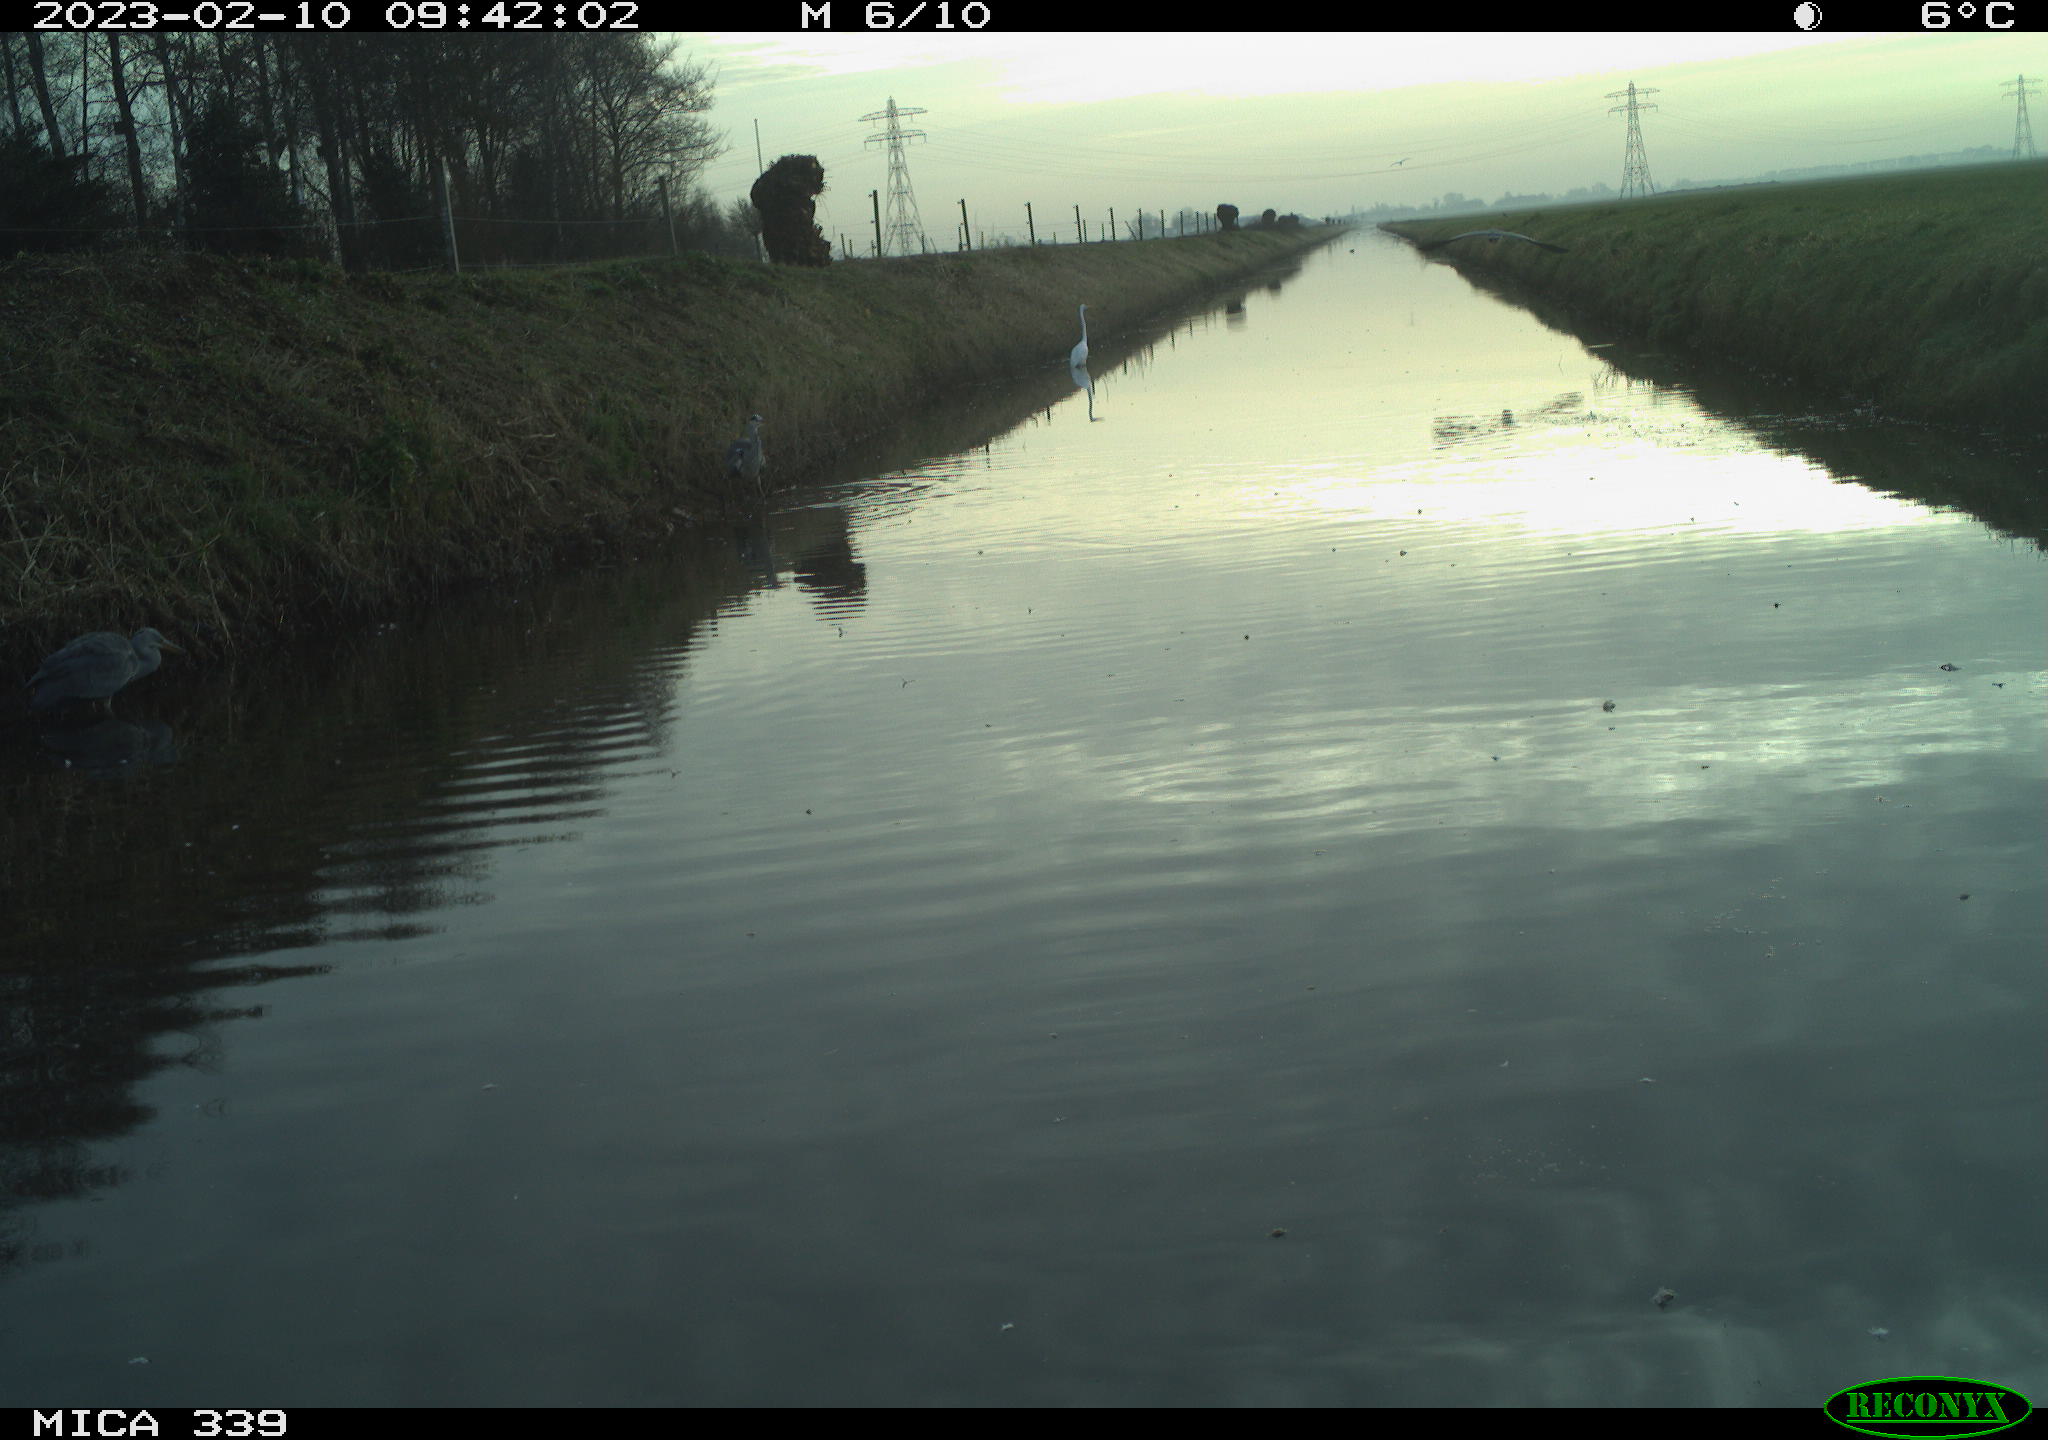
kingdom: Animalia
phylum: Chordata
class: Aves
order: Pelecaniformes
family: Ardeidae
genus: Ardea
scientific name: Ardea cinerea
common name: Grey heron
